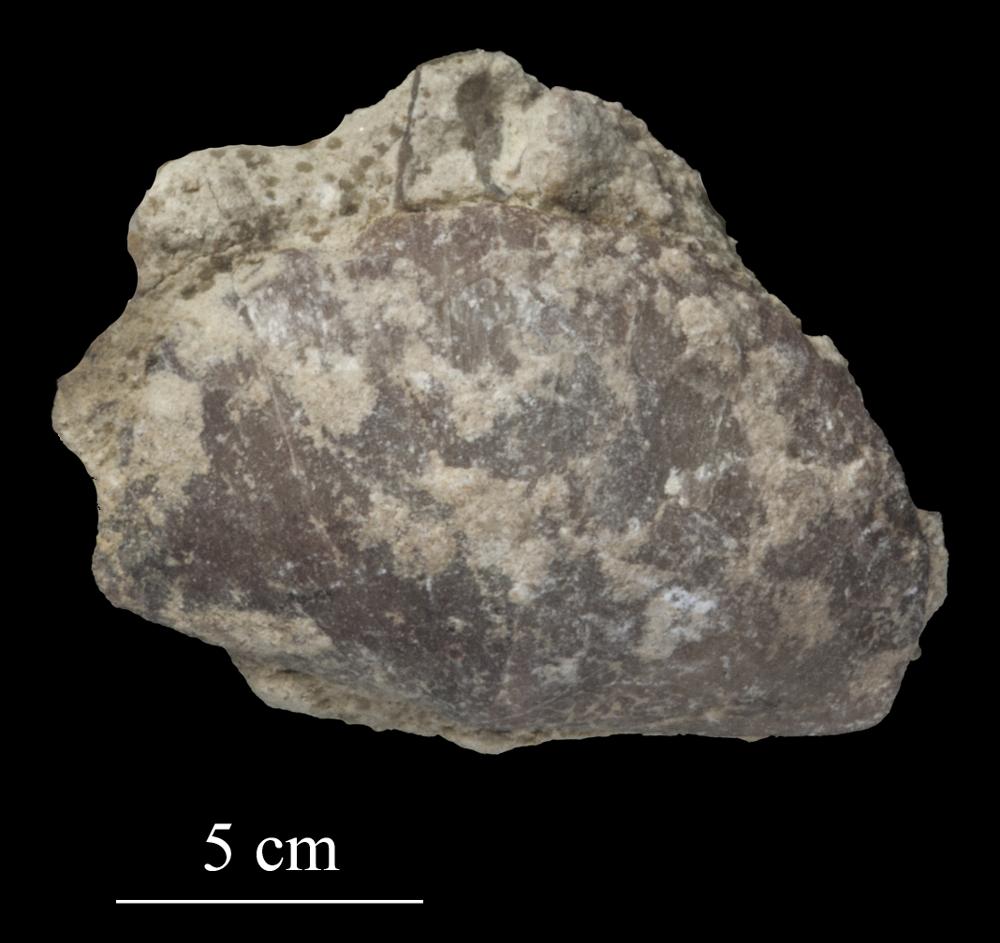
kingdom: Animalia
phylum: Brachiopoda
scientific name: Brachiopoda
